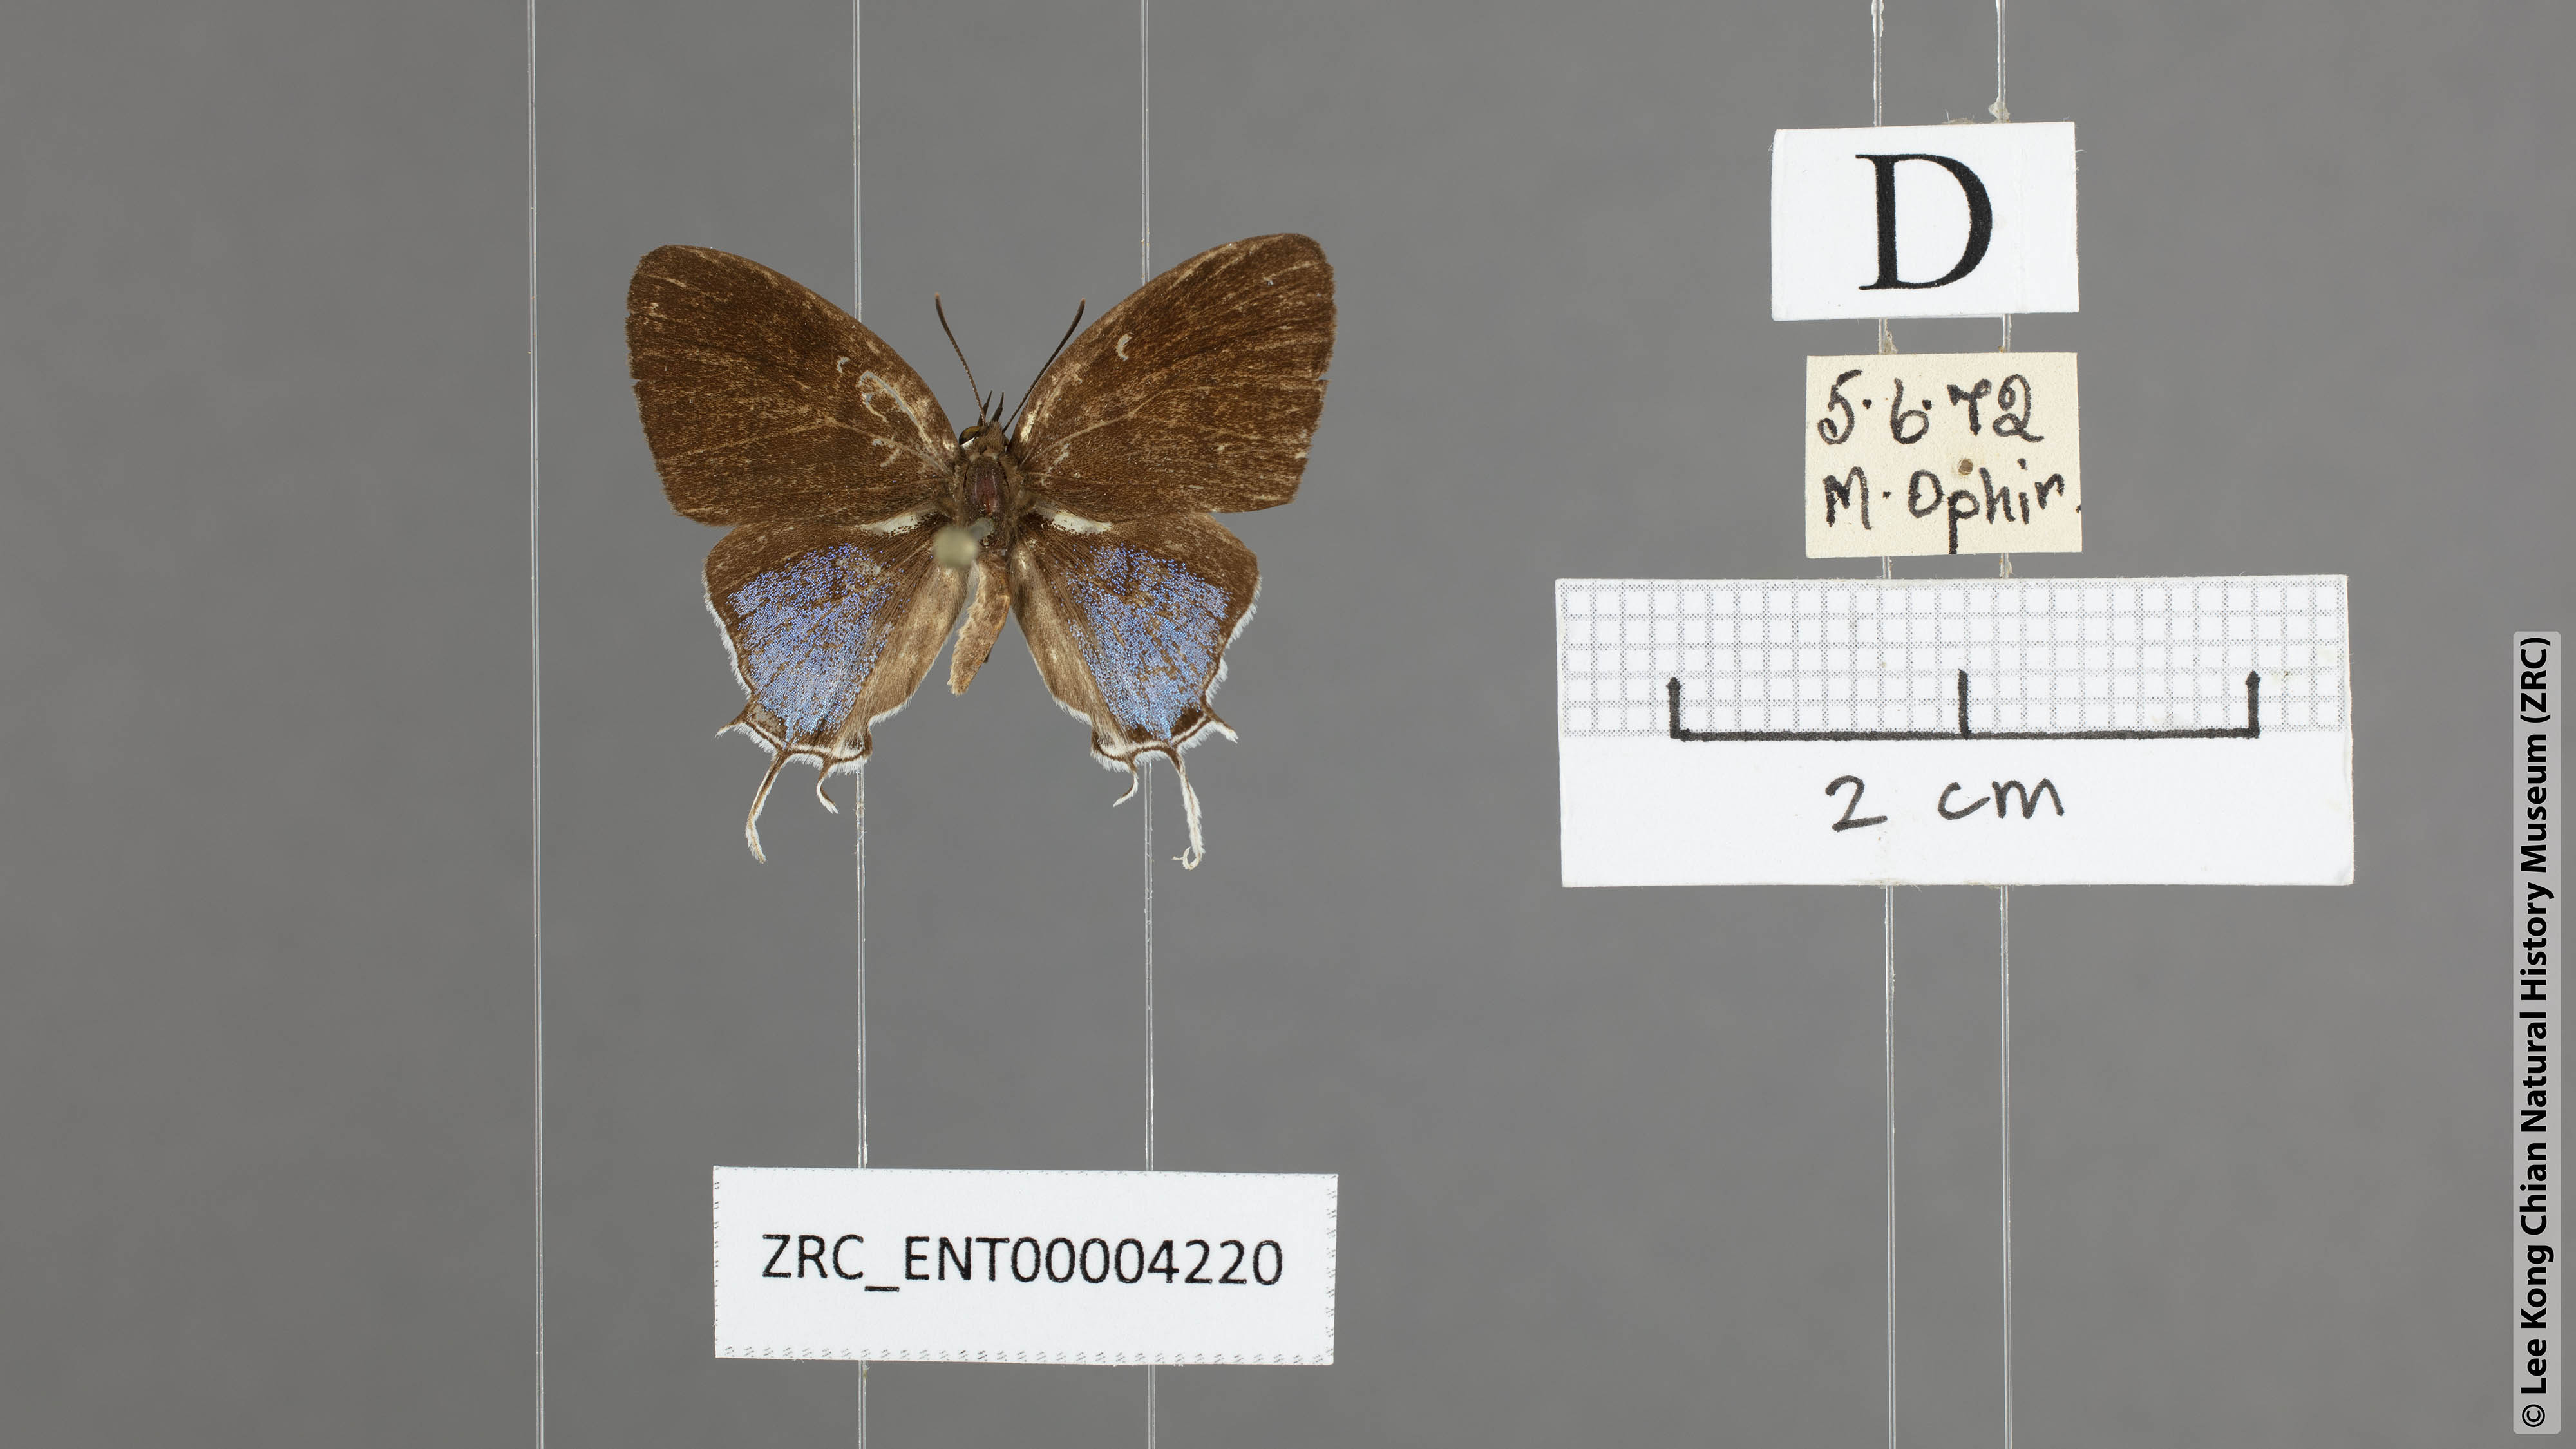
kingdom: Animalia
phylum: Arthropoda
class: Insecta
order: Lepidoptera
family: Lycaenidae
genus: Drupadia
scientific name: Drupadia ravindra
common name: Common posy
